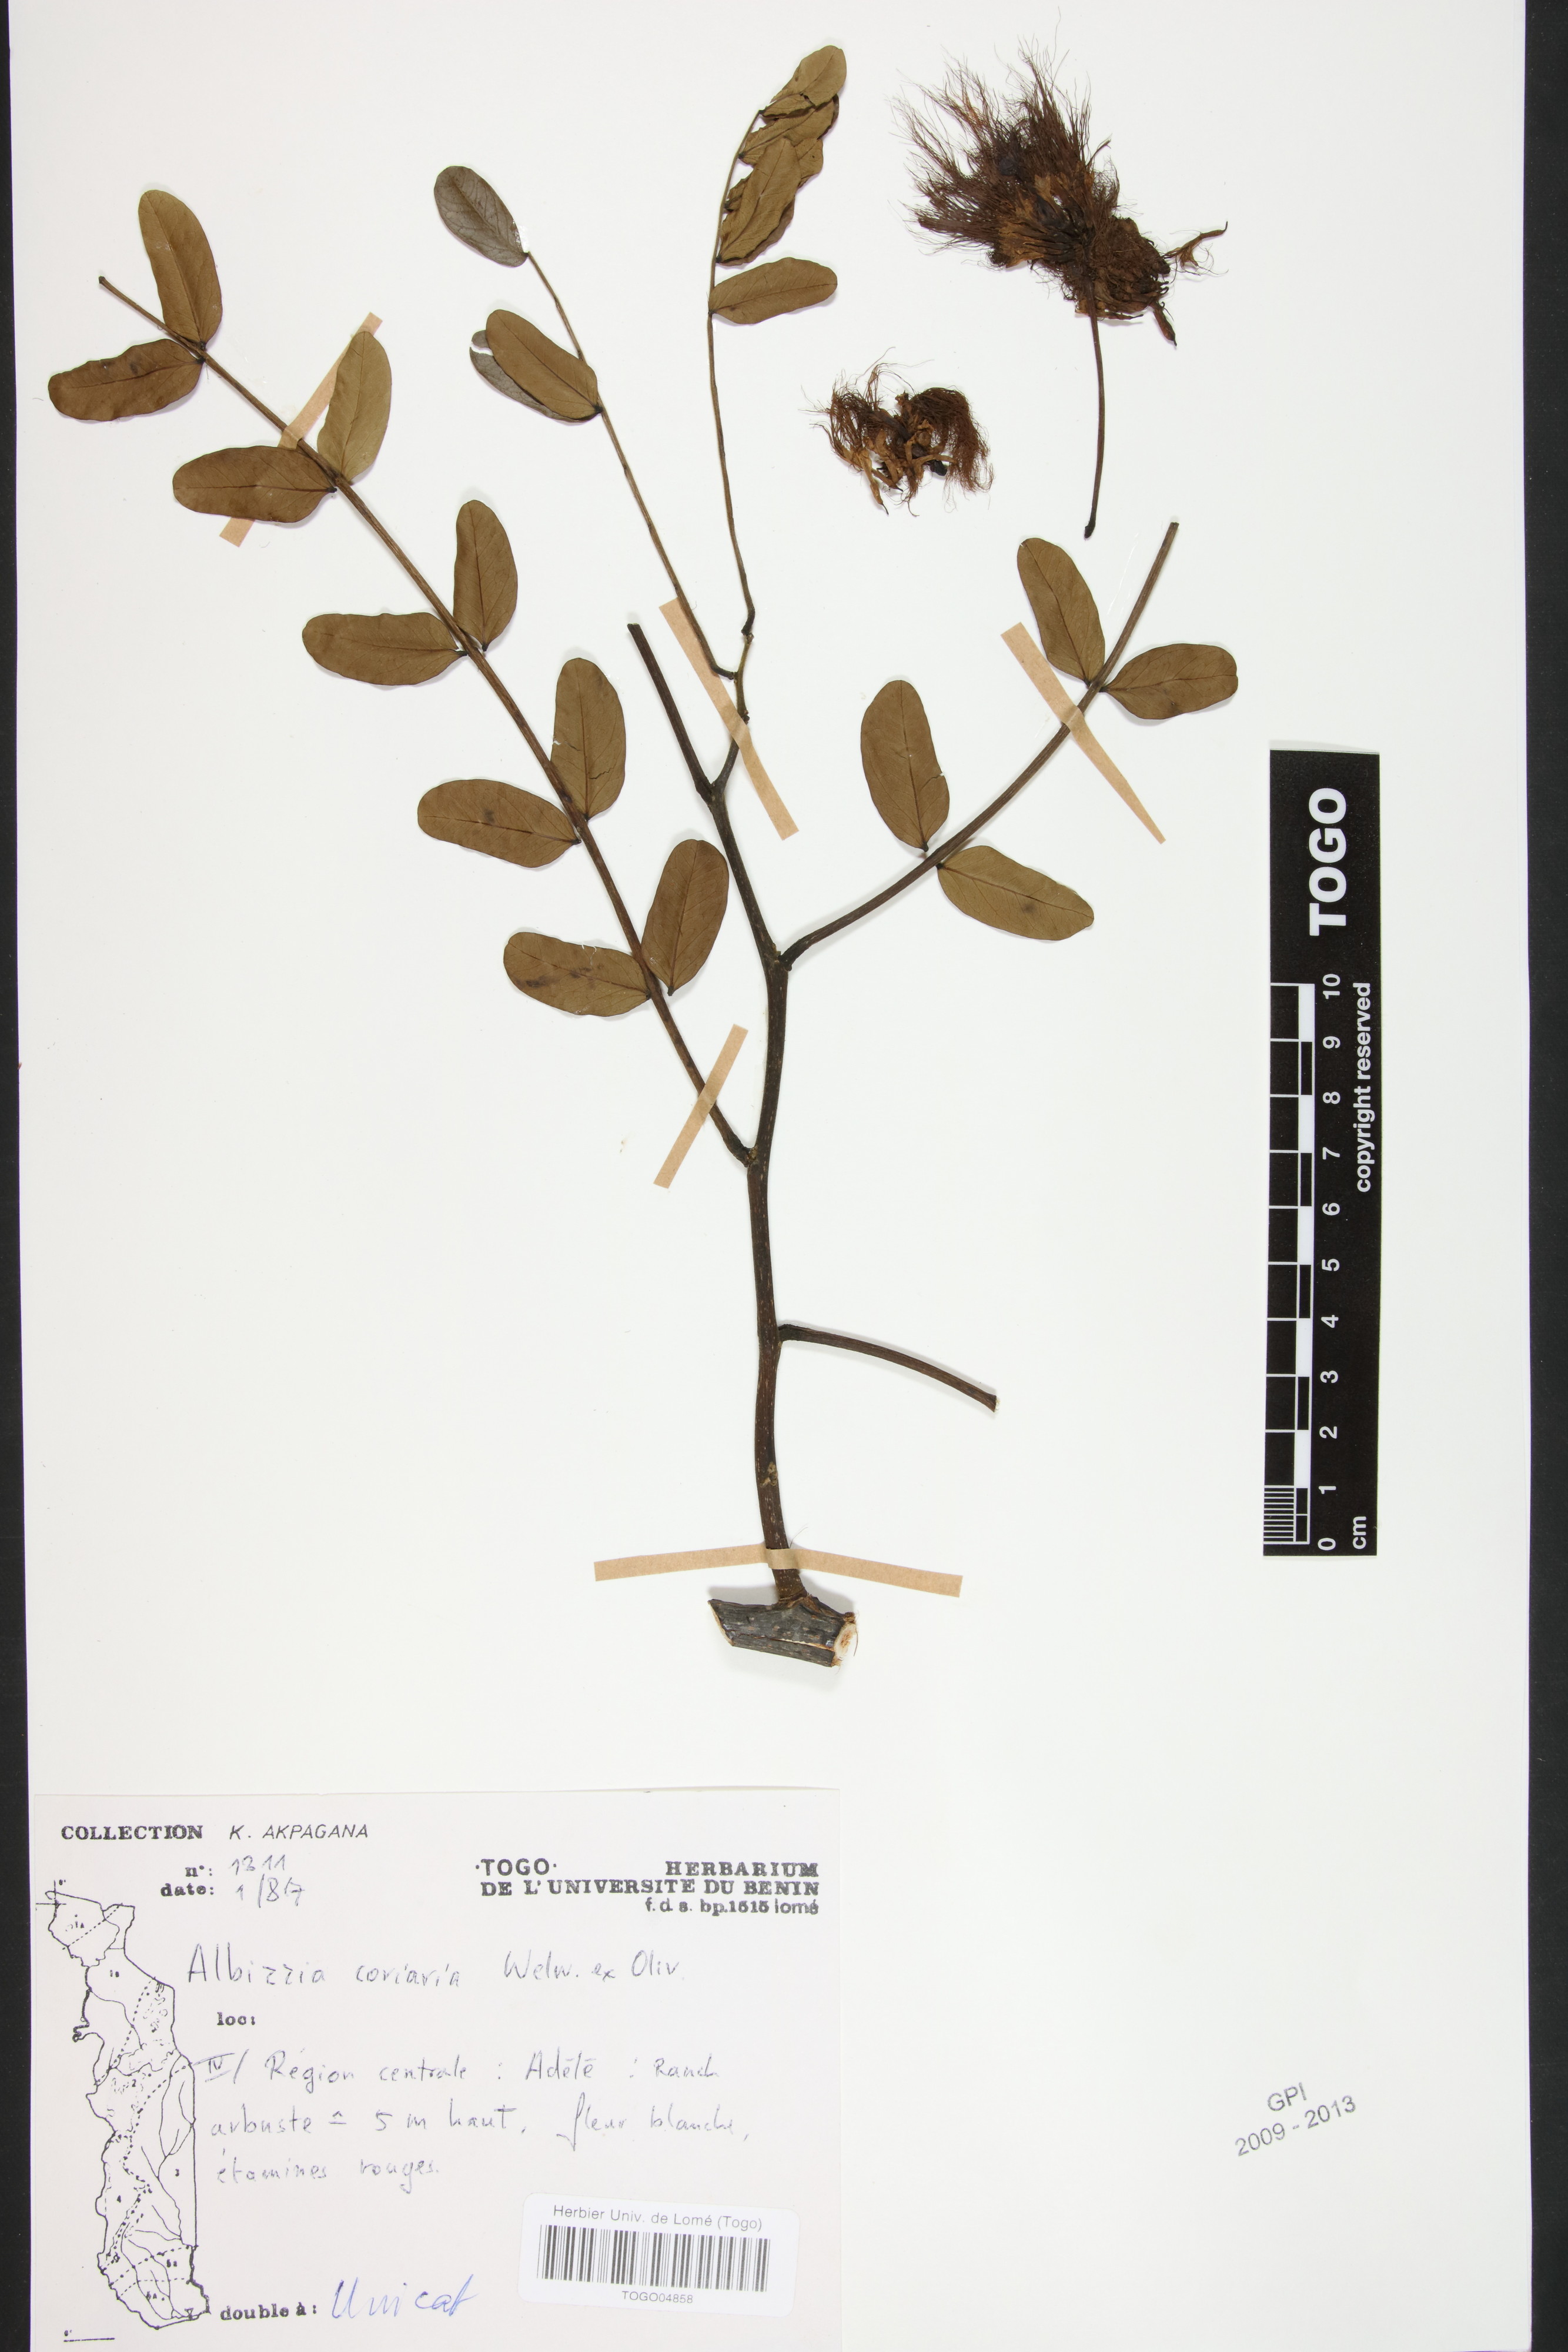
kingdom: Plantae
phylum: Tracheophyta
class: Magnoliopsida
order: Fabales
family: Fabaceae
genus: Albizia
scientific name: Albizia coriaria
